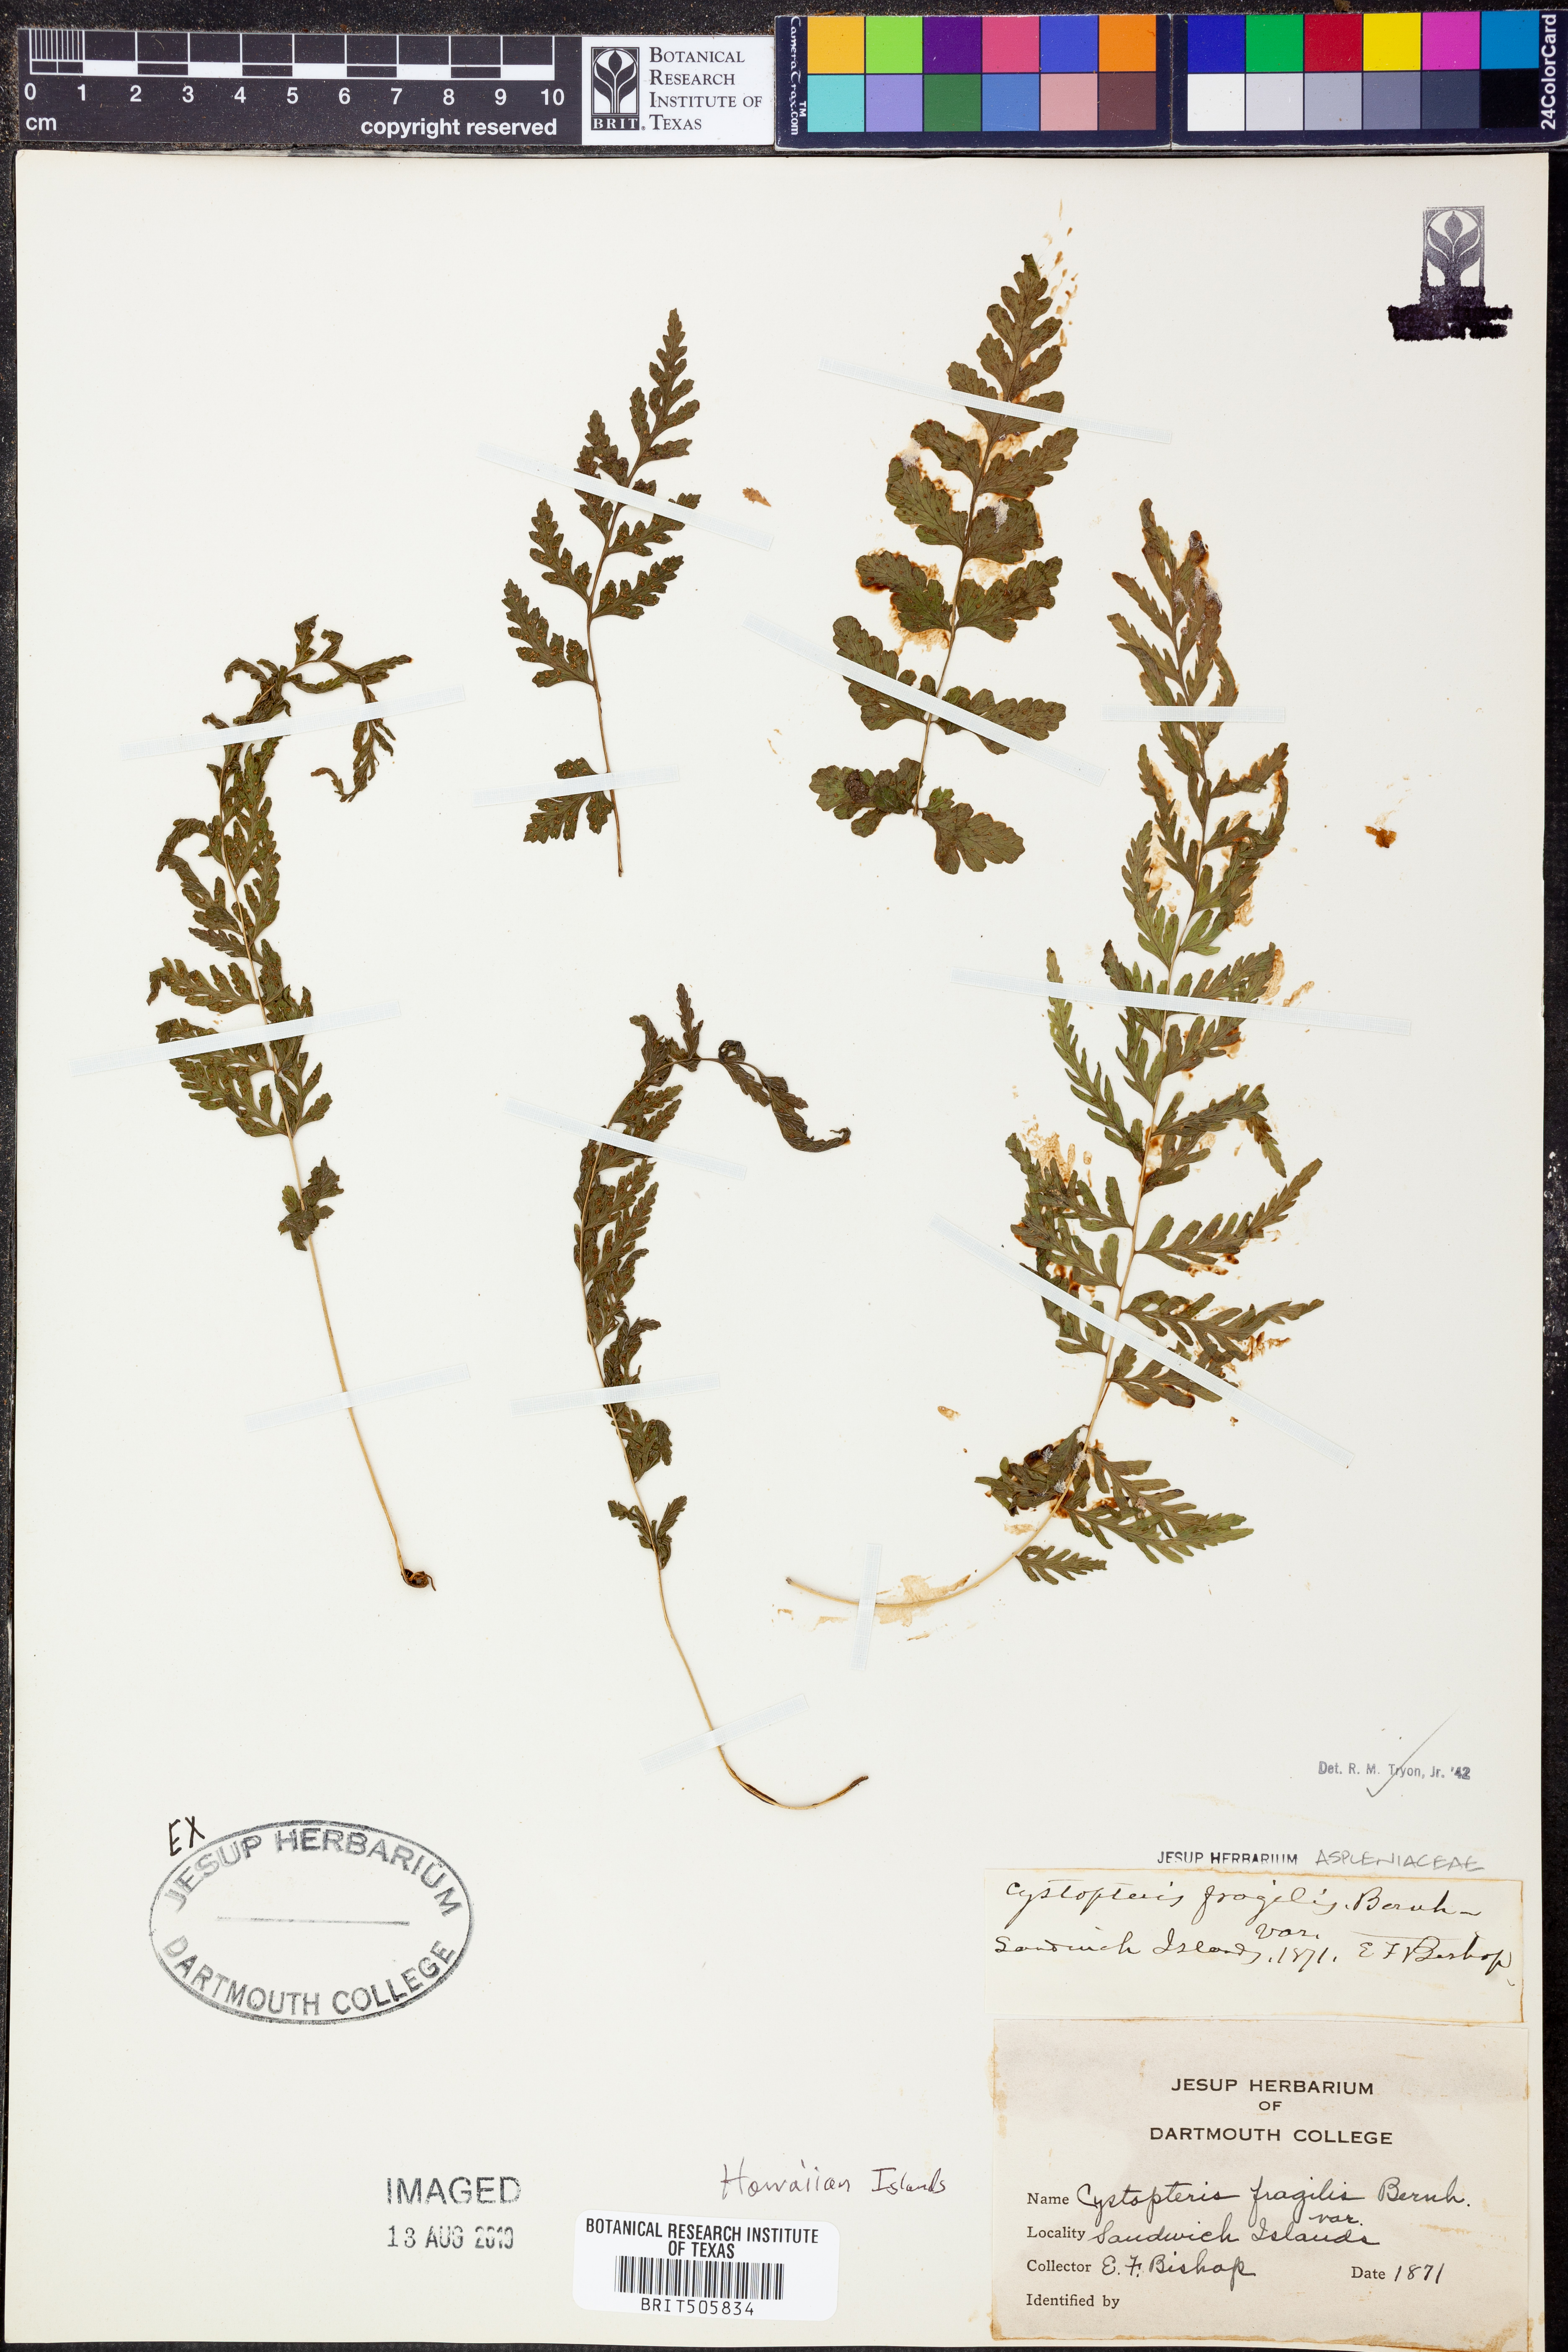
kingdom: Plantae
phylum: Tracheophyta
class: Polypodiopsida
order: Polypodiales
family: Cystopteridaceae
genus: Cystopteris
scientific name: Cystopteris fragilis
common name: Brittle bladder fern
